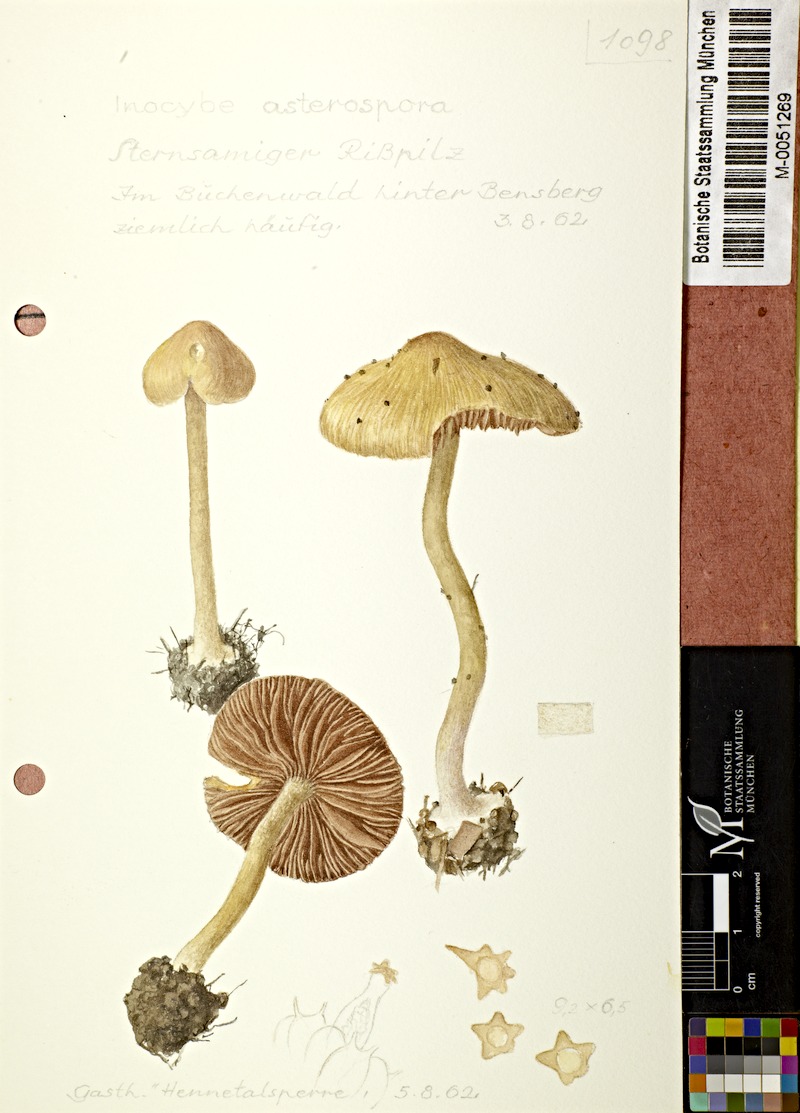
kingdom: Fungi
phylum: Basidiomycota
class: Agaricomycetes
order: Agaricales
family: Inocybaceae
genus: Inocybe
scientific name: Inocybe asterospora
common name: Star fibrecap
